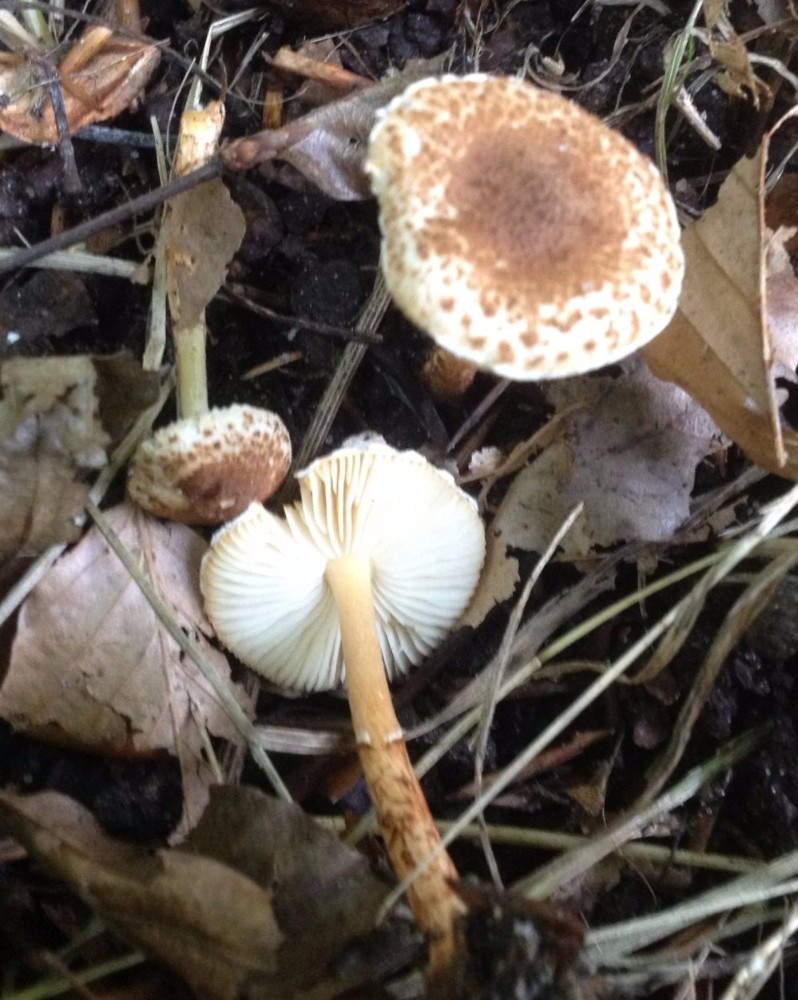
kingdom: Fungi
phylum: Basidiomycota
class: Agaricomycetes
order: Agaricales
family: Agaricaceae
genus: Lepiota
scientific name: Lepiota castanea
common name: kastaniebrun parasolhat
